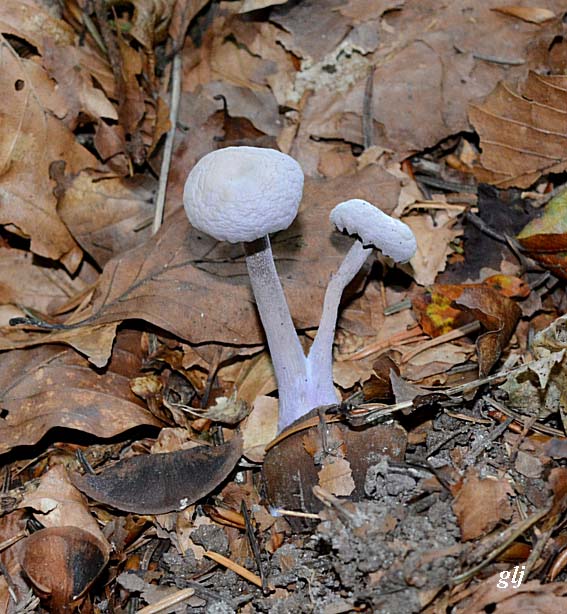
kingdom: Fungi
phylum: Basidiomycota
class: Agaricomycetes
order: Agaricales
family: Hydnangiaceae
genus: Laccaria
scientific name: Laccaria amethystina
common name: violet ametysthat
